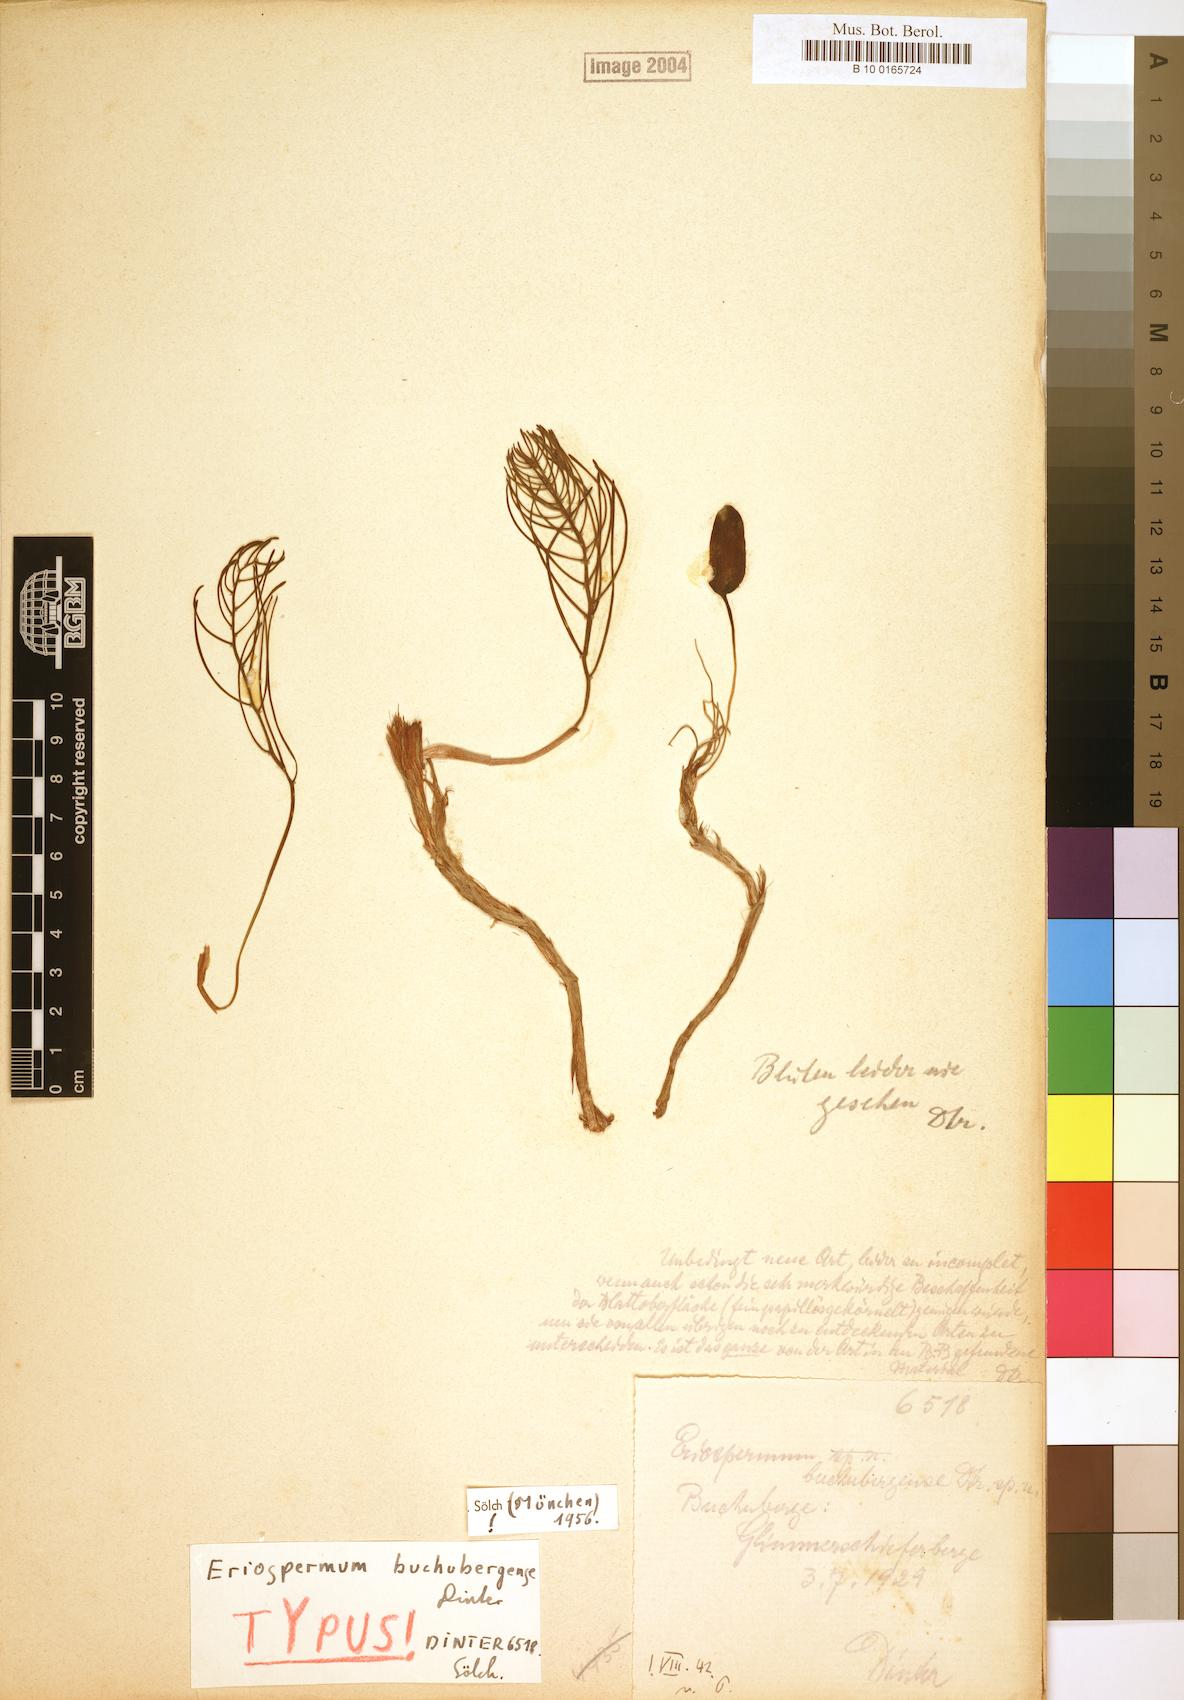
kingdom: Plantae
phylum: Tracheophyta
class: Liliopsida
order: Asparagales
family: Asparagaceae
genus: Eriospermum
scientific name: Eriospermum buchubergense
